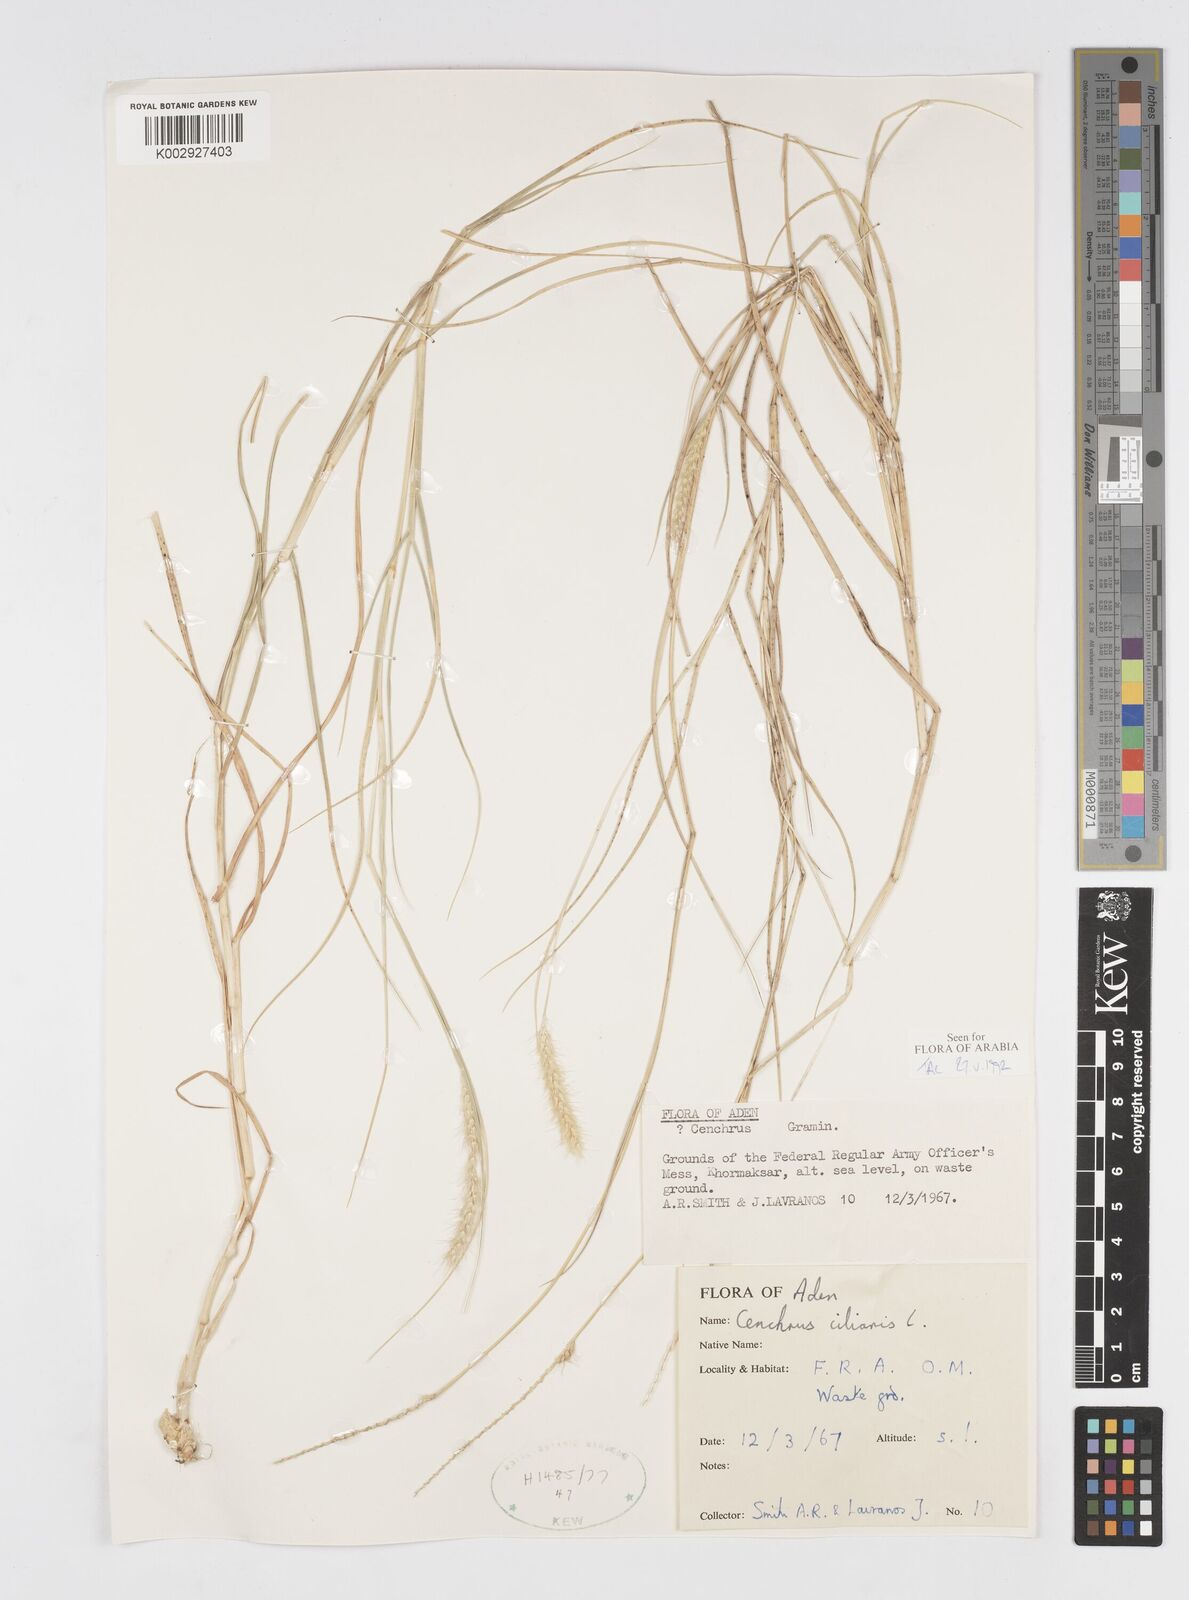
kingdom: Plantae
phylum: Tracheophyta
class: Liliopsida
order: Poales
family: Poaceae
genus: Cenchrus
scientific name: Cenchrus ciliaris
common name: Buffelgrass
